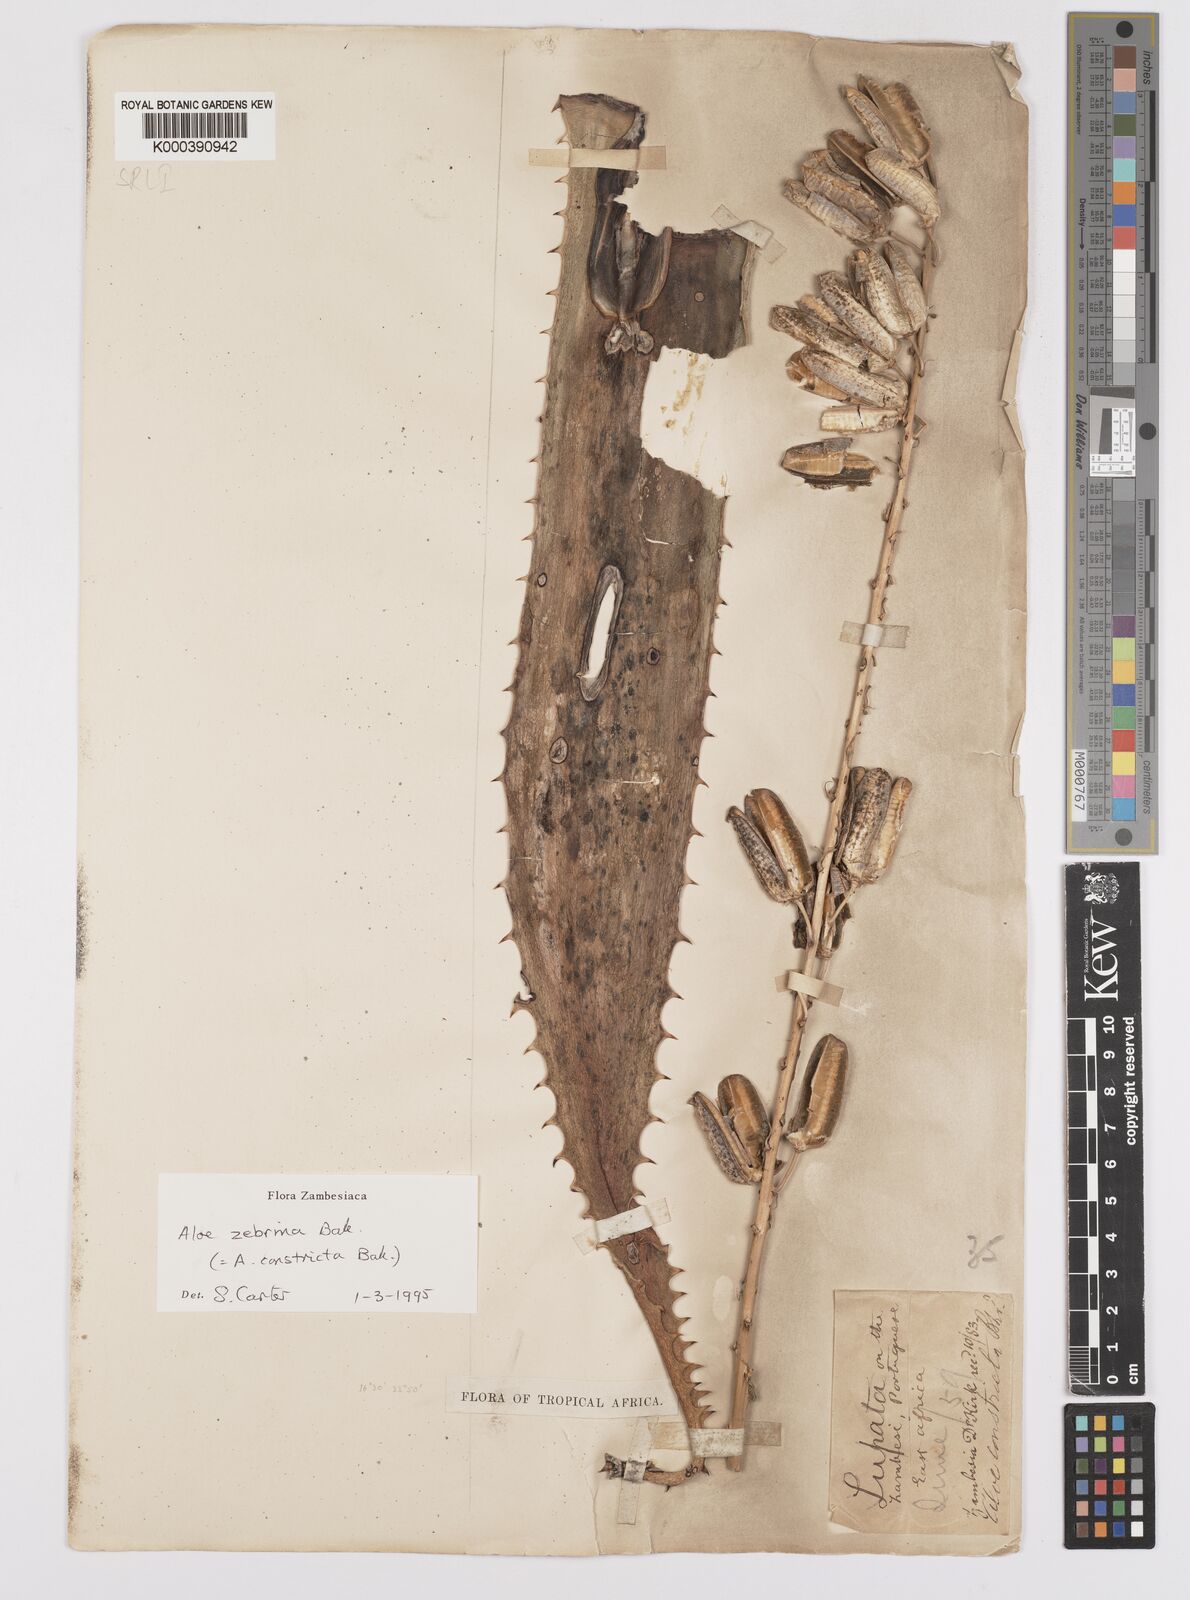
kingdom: Plantae
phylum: Tracheophyta
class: Liliopsida
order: Asparagales
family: Asphodelaceae
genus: Aloe
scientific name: Aloe zebrina
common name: Zebra-leaf aloe
